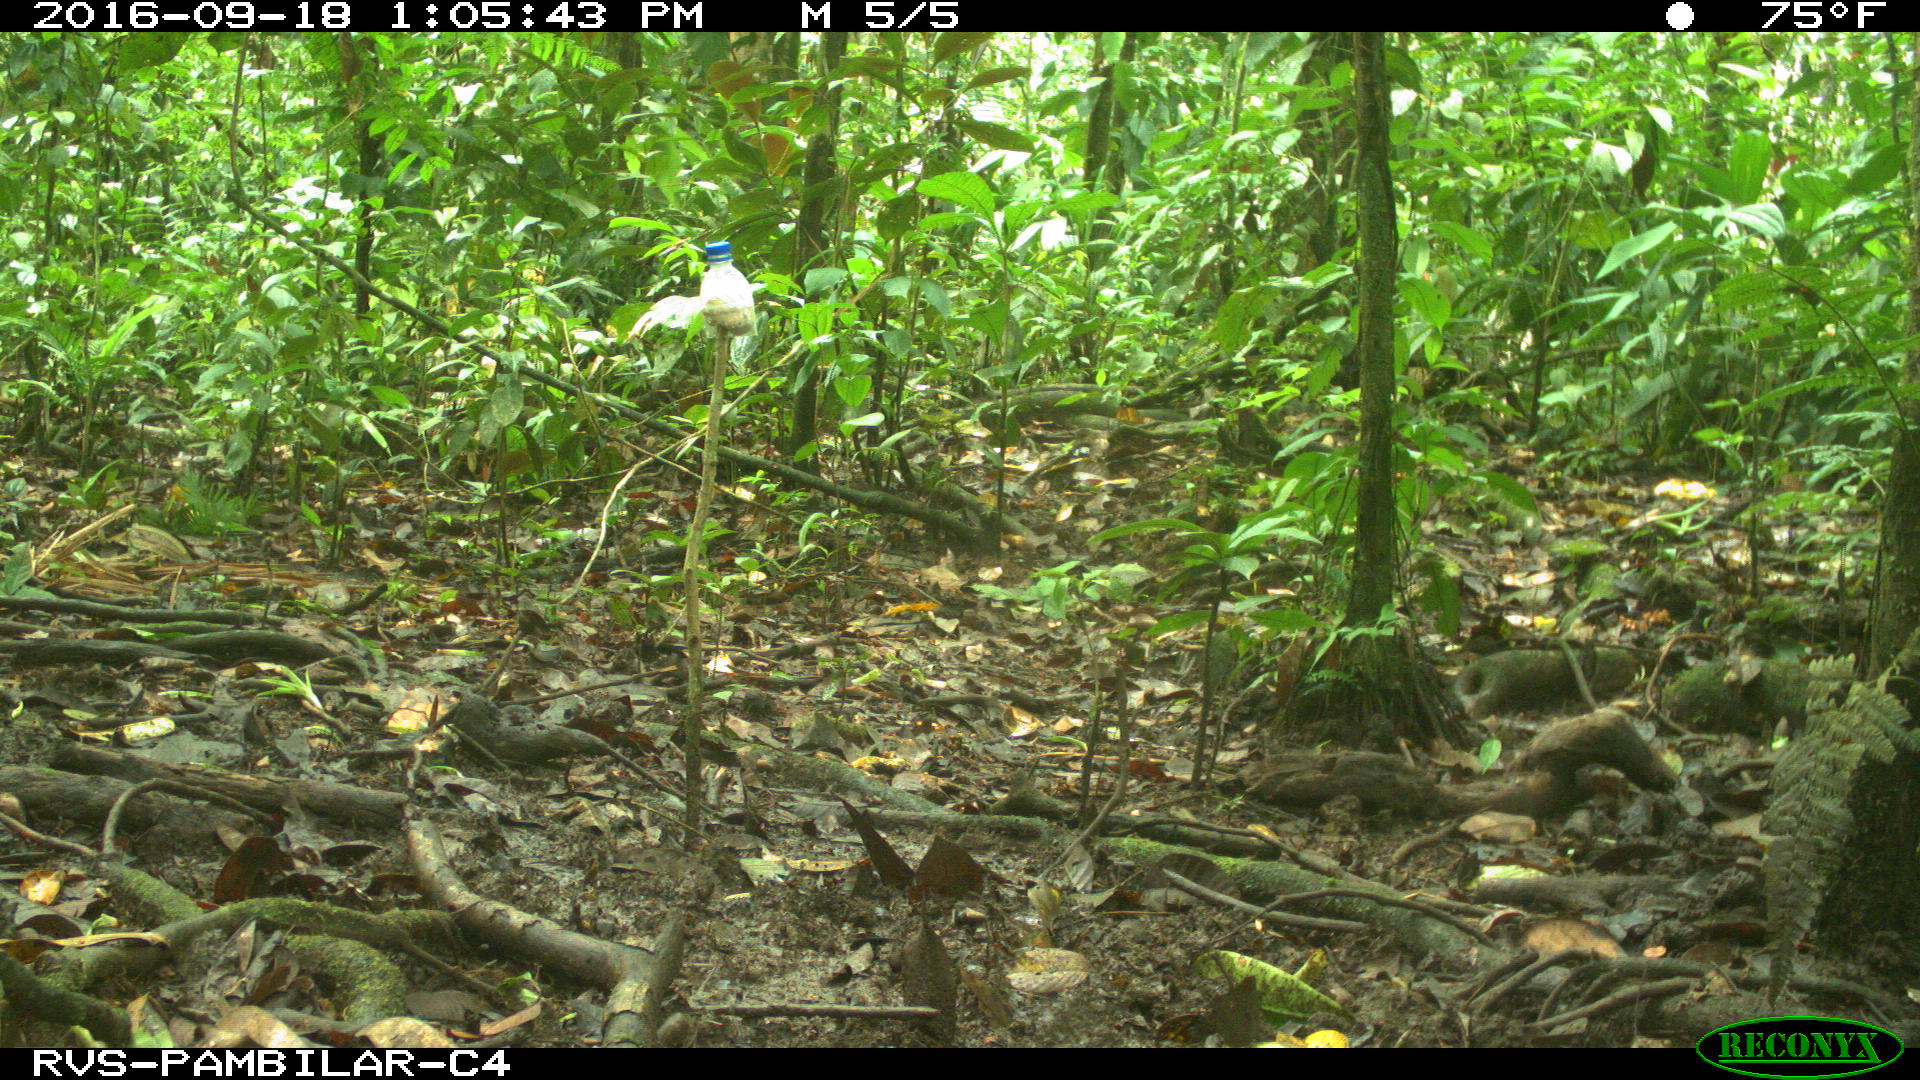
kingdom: Animalia
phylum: Chordata
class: Mammalia
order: Artiodactyla
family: Tayassuidae
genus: Tayassu
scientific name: Tayassu pecari
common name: White-lipped peccary
